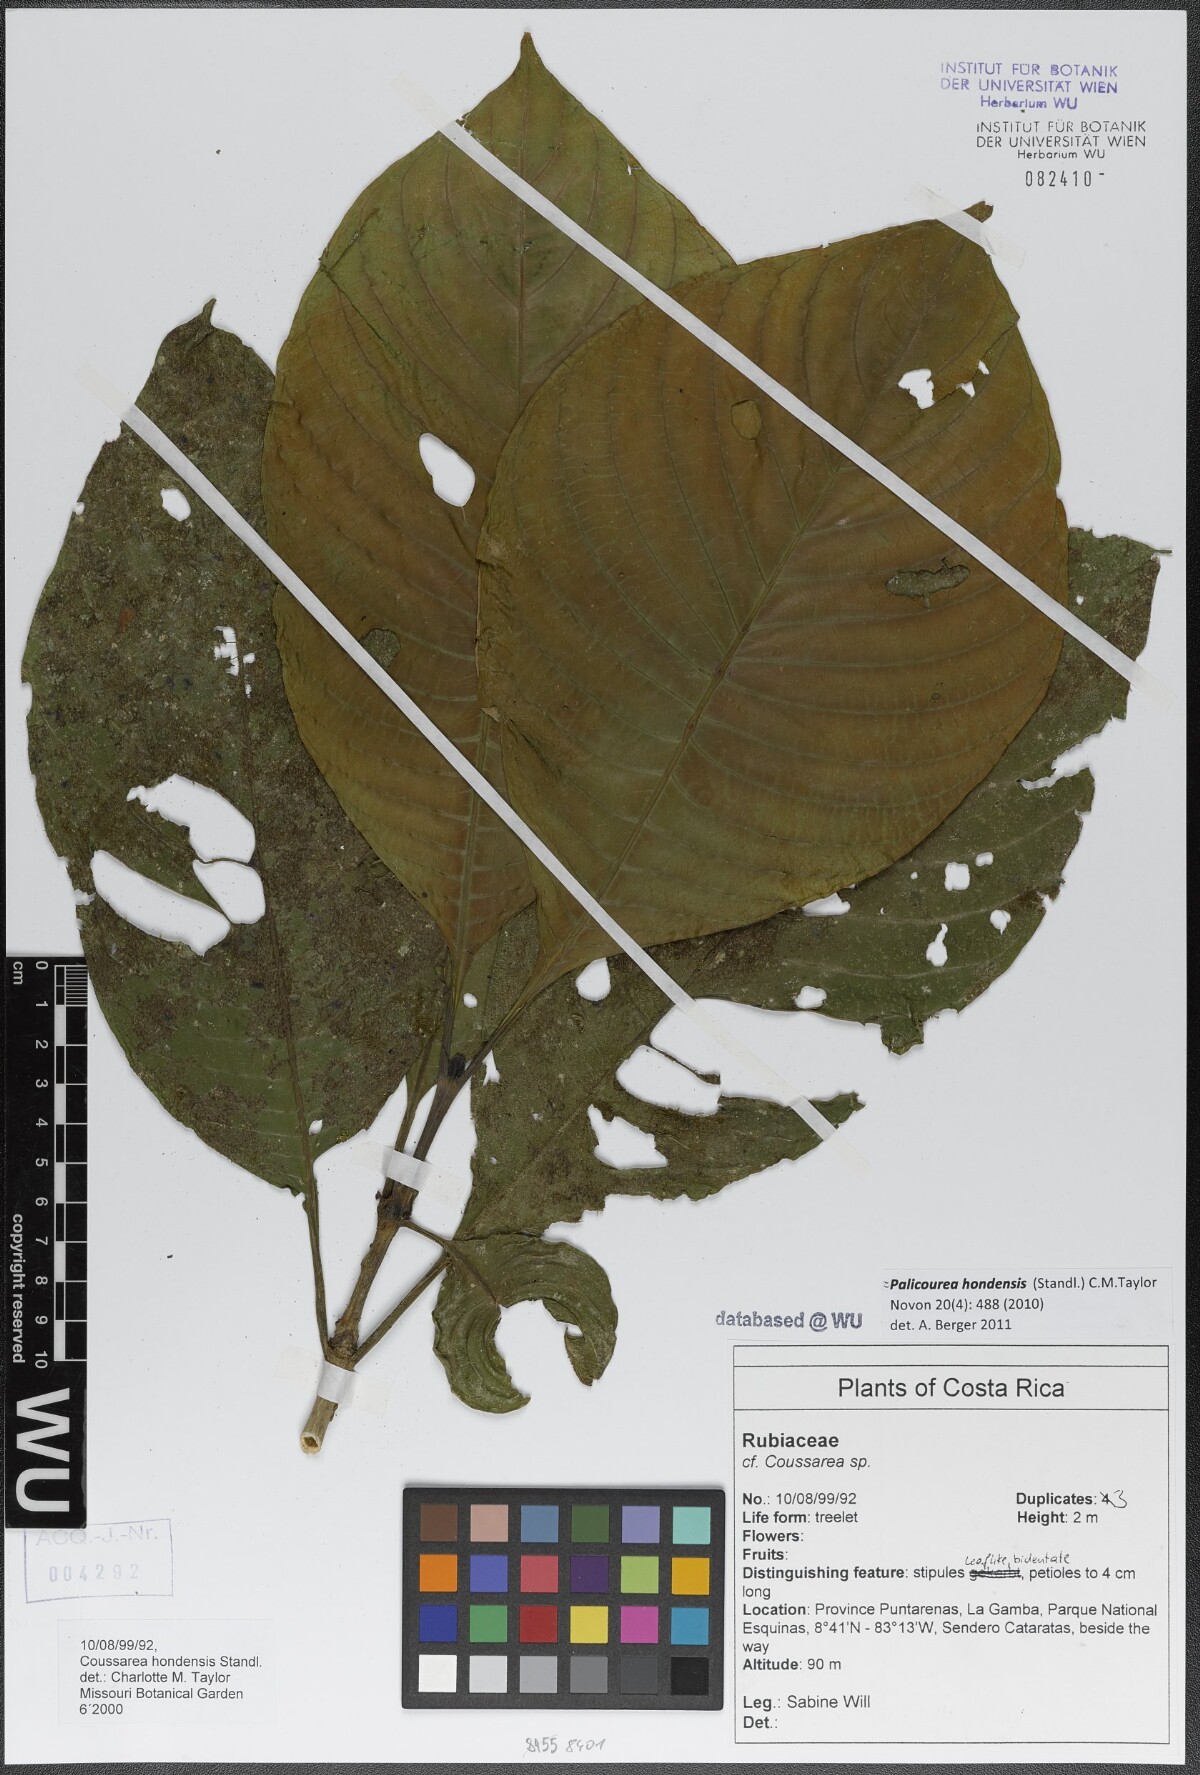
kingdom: Plantae
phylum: Tracheophyta
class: Magnoliopsida
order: Gentianales
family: Rubiaceae
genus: Palicourea
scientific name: Palicourea hondensis
